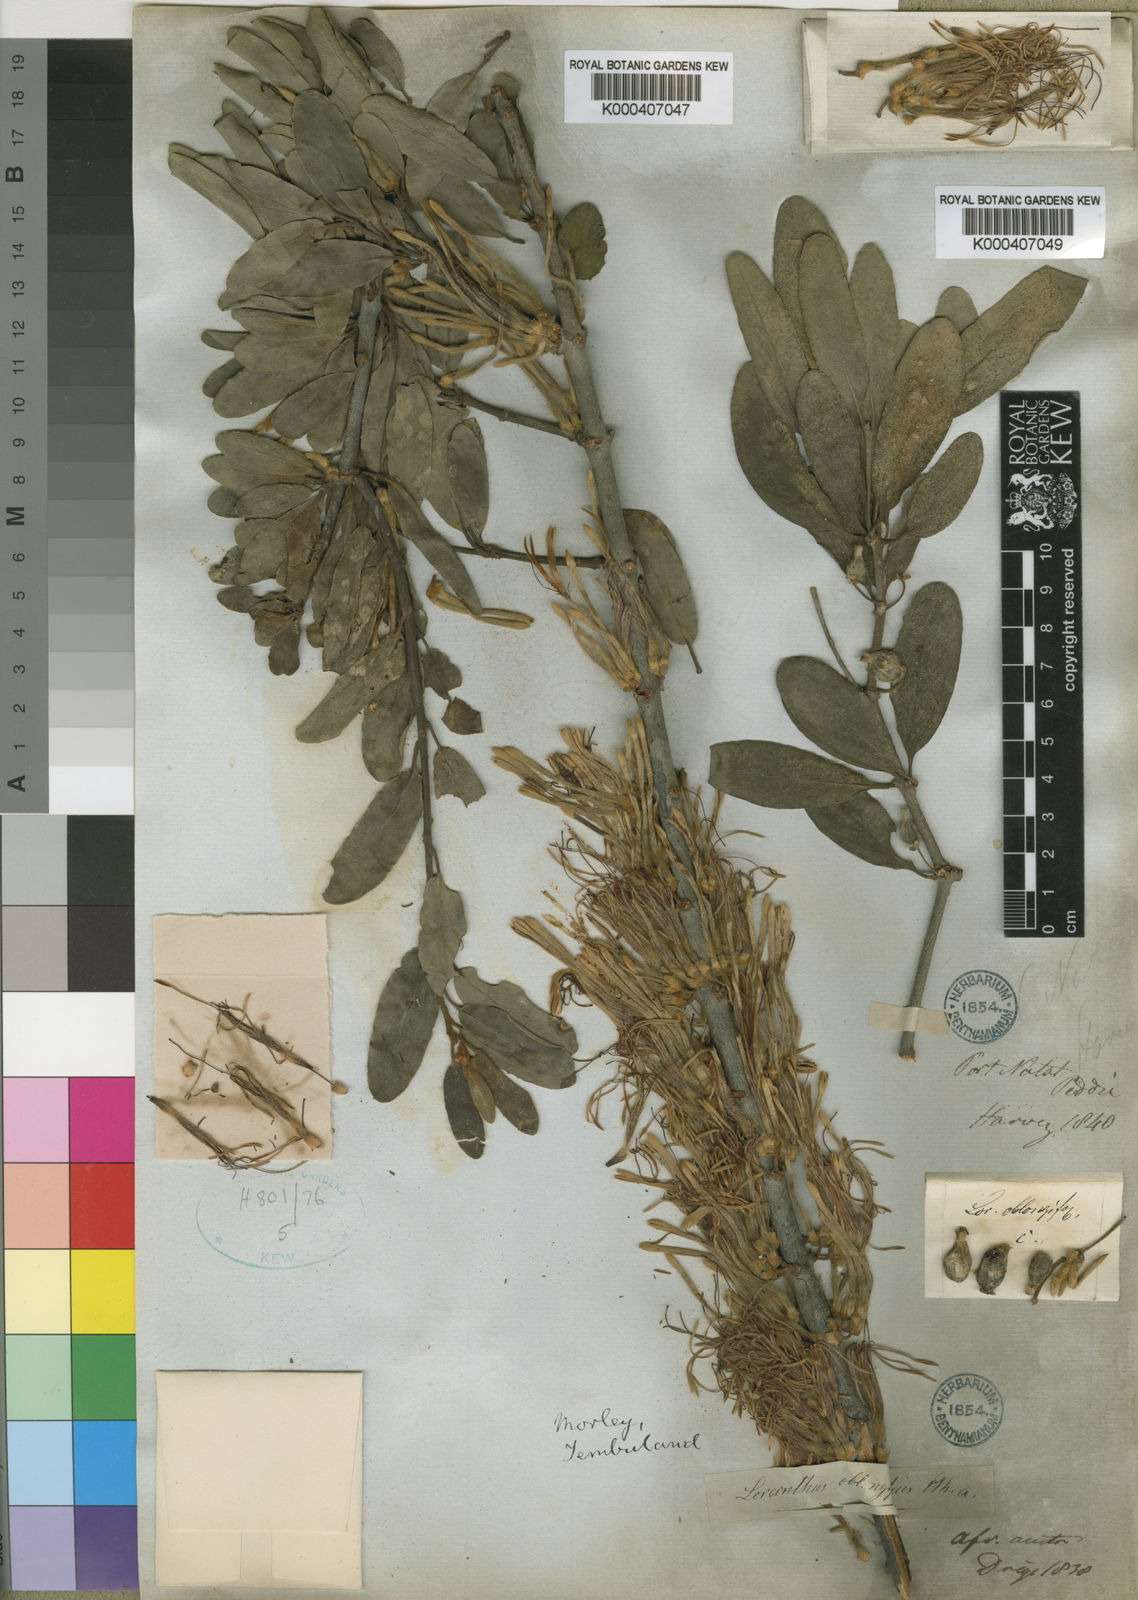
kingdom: Plantae
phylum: Tracheophyta
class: Magnoliopsida
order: Santalales
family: Loranthaceae
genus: Erianthemum
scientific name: Erianthemum dregei
